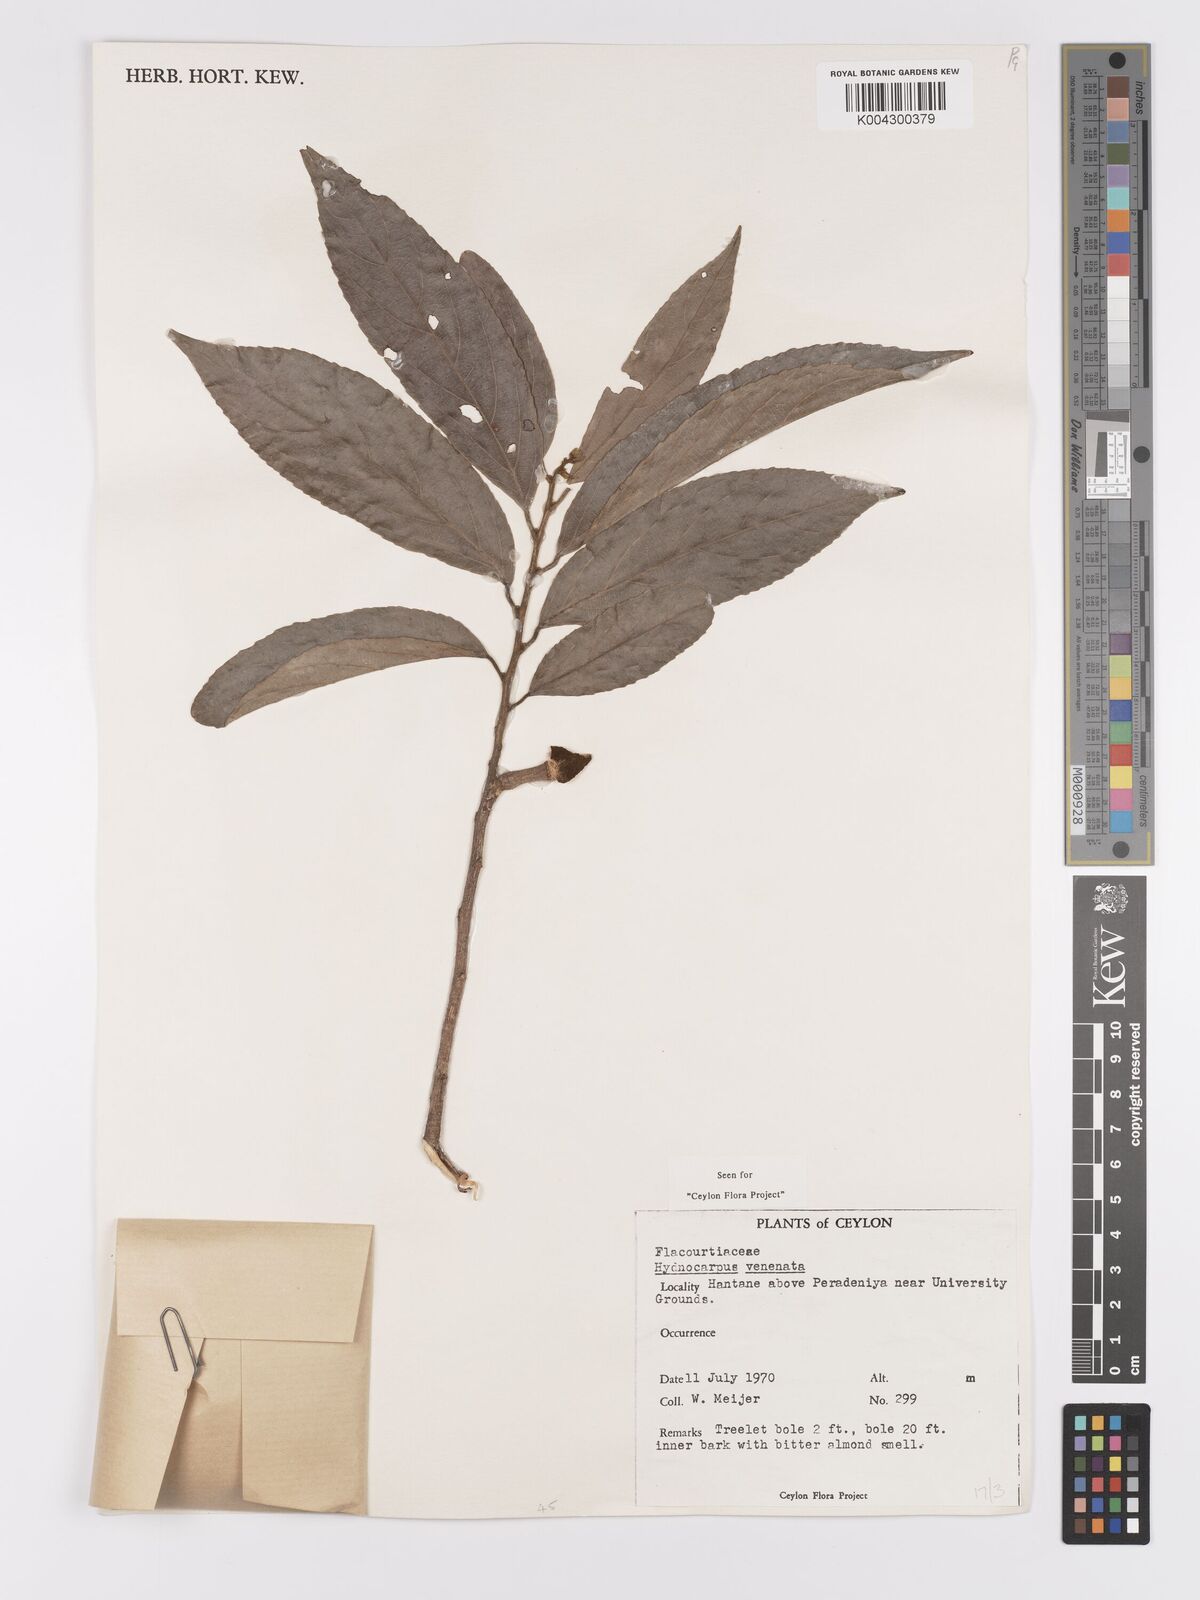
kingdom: Plantae
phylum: Tracheophyta
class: Magnoliopsida
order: Malpighiales
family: Achariaceae
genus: Hydnocarpus
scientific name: Hydnocarpus venenatus
